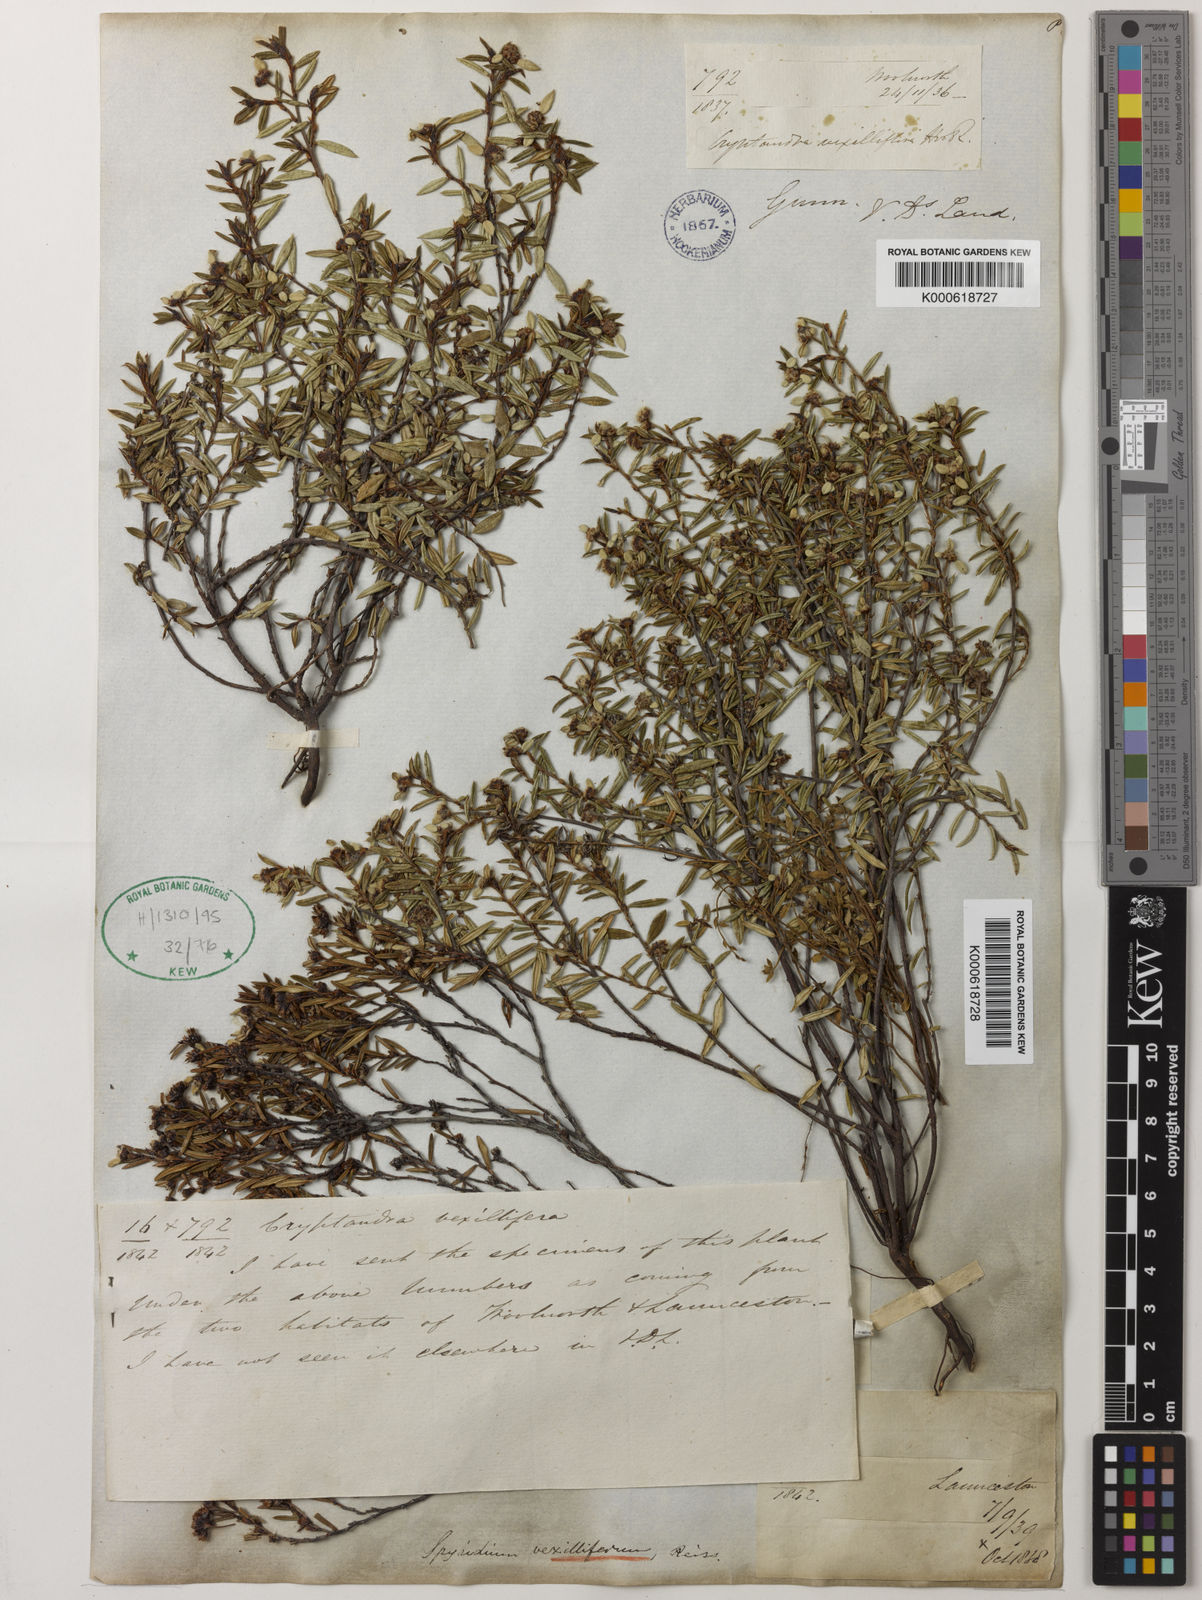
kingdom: Plantae
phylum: Tracheophyta
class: Magnoliopsida
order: Rosales
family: Rhamnaceae
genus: Spyridium
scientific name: Spyridium vexilliferum
